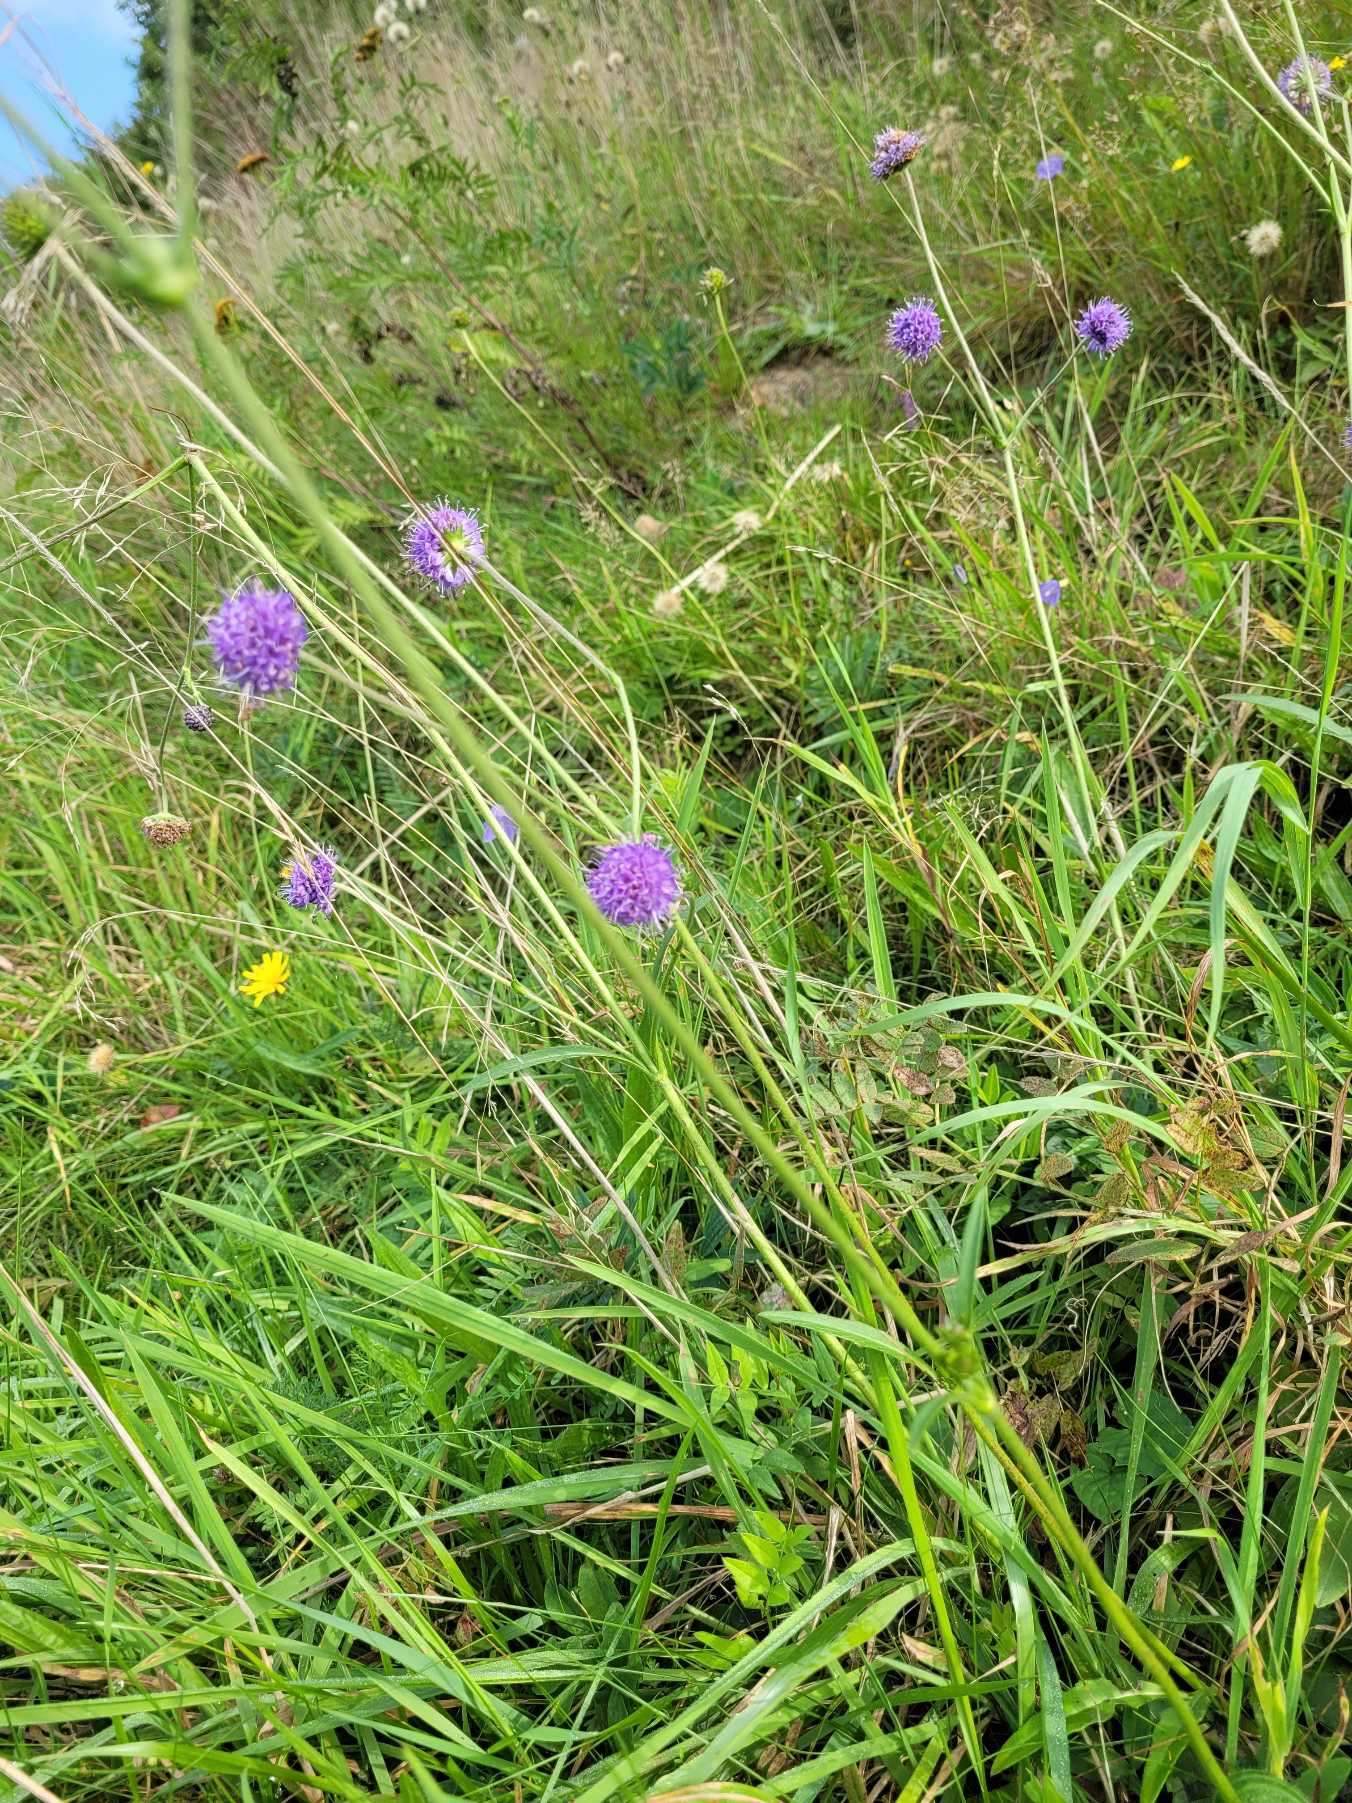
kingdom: Plantae
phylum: Tracheophyta
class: Magnoliopsida
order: Dipsacales
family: Caprifoliaceae
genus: Succisa
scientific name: Succisa pratensis
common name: Djævelsbid
